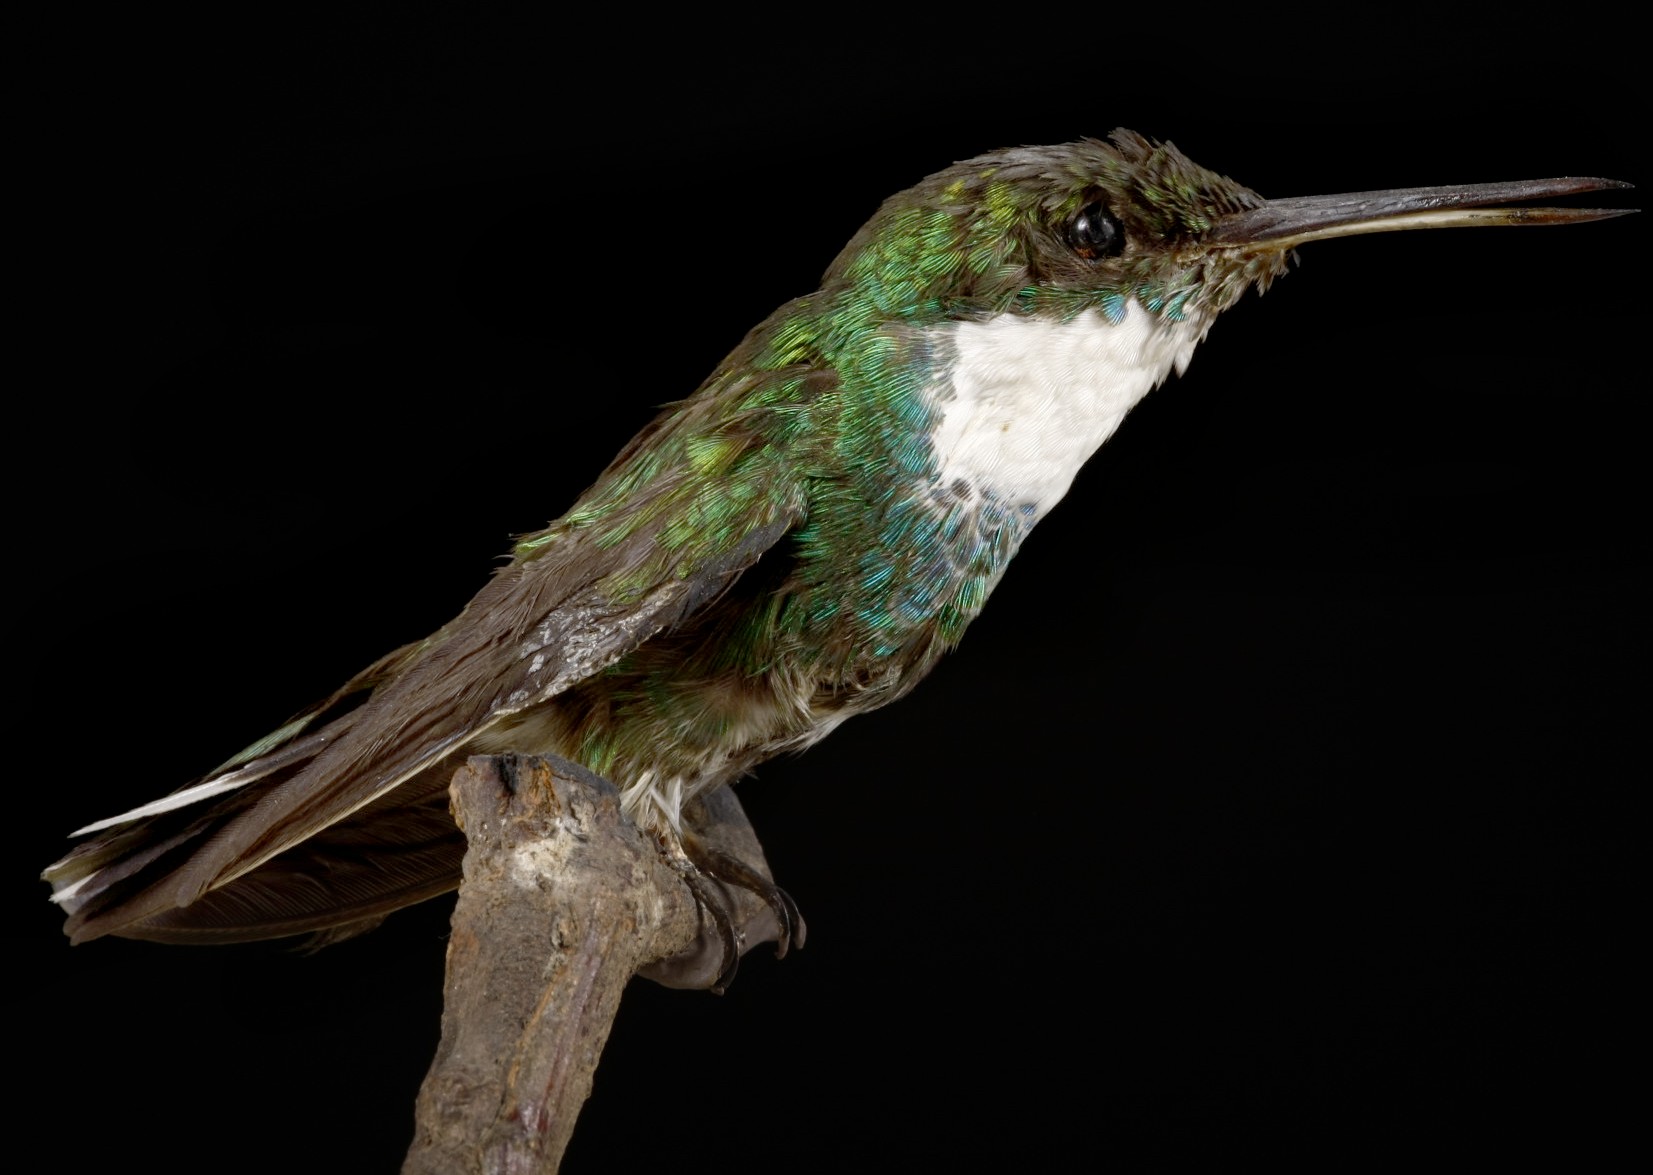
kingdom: Animalia
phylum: Chordata
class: Aves
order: Apodiformes
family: Trochilidae
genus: Leucochloris
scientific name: Leucochloris albicollis
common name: White-throated hummingbird
